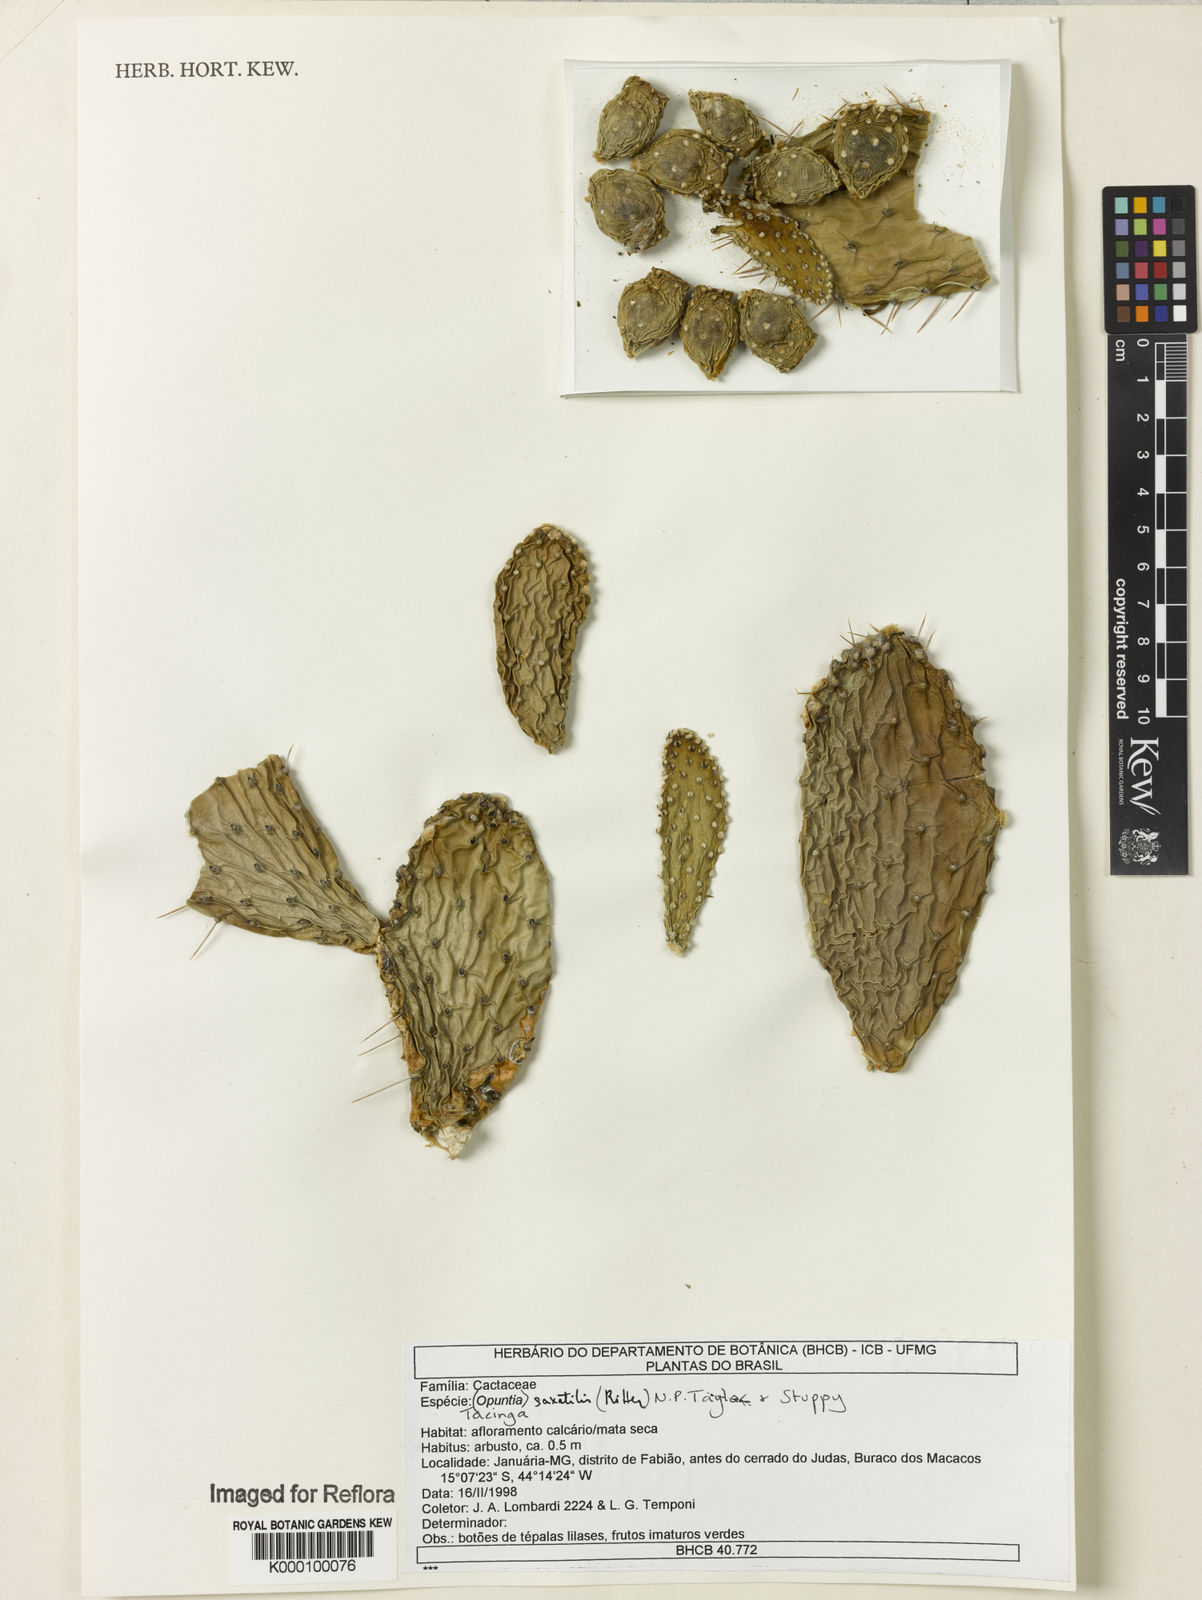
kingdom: Plantae
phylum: Tracheophyta
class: Magnoliopsida
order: Caryophyllales
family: Cactaceae
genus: Tacinga
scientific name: Tacinga saxatilis
